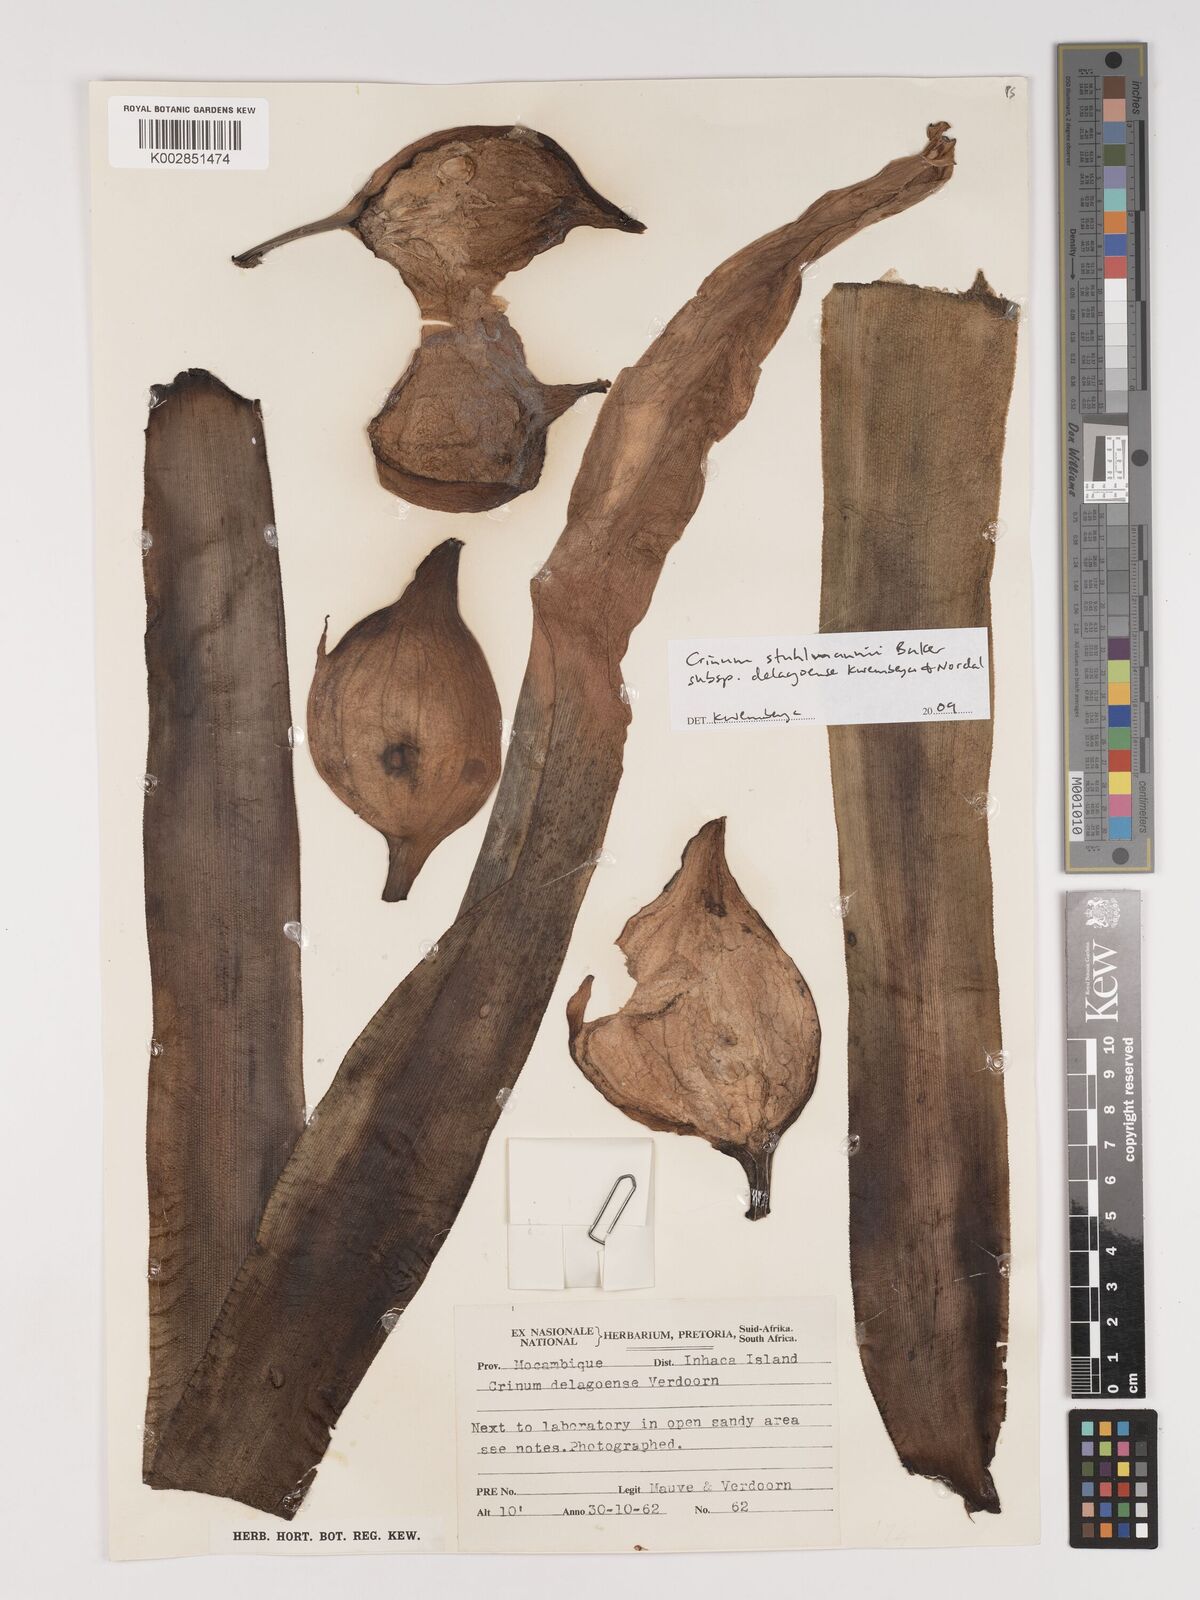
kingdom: Plantae
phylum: Tracheophyta
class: Liliopsida
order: Asparagales
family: Amaryllidaceae
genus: Crinum
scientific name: Crinum stuhlmannii
